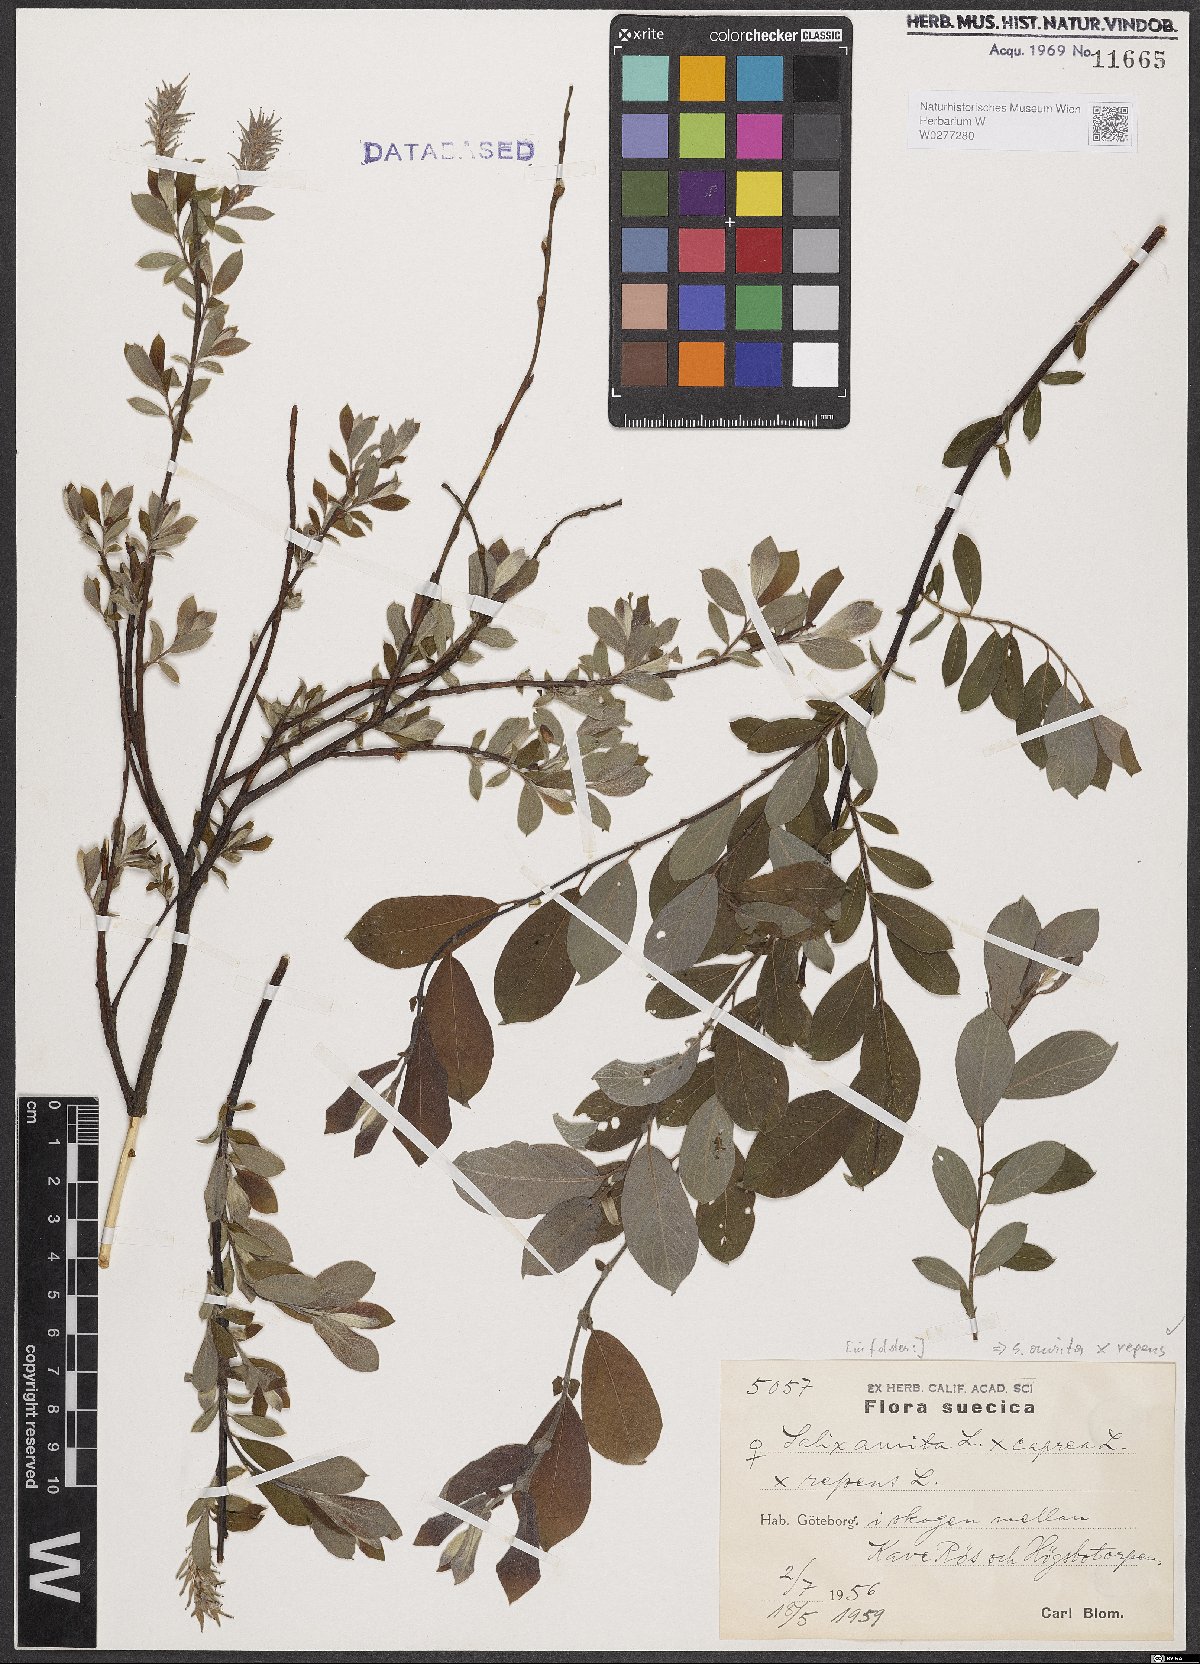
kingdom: Plantae
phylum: Tracheophyta
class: Magnoliopsida
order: Malpighiales
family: Salicaceae
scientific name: Salicaceae
